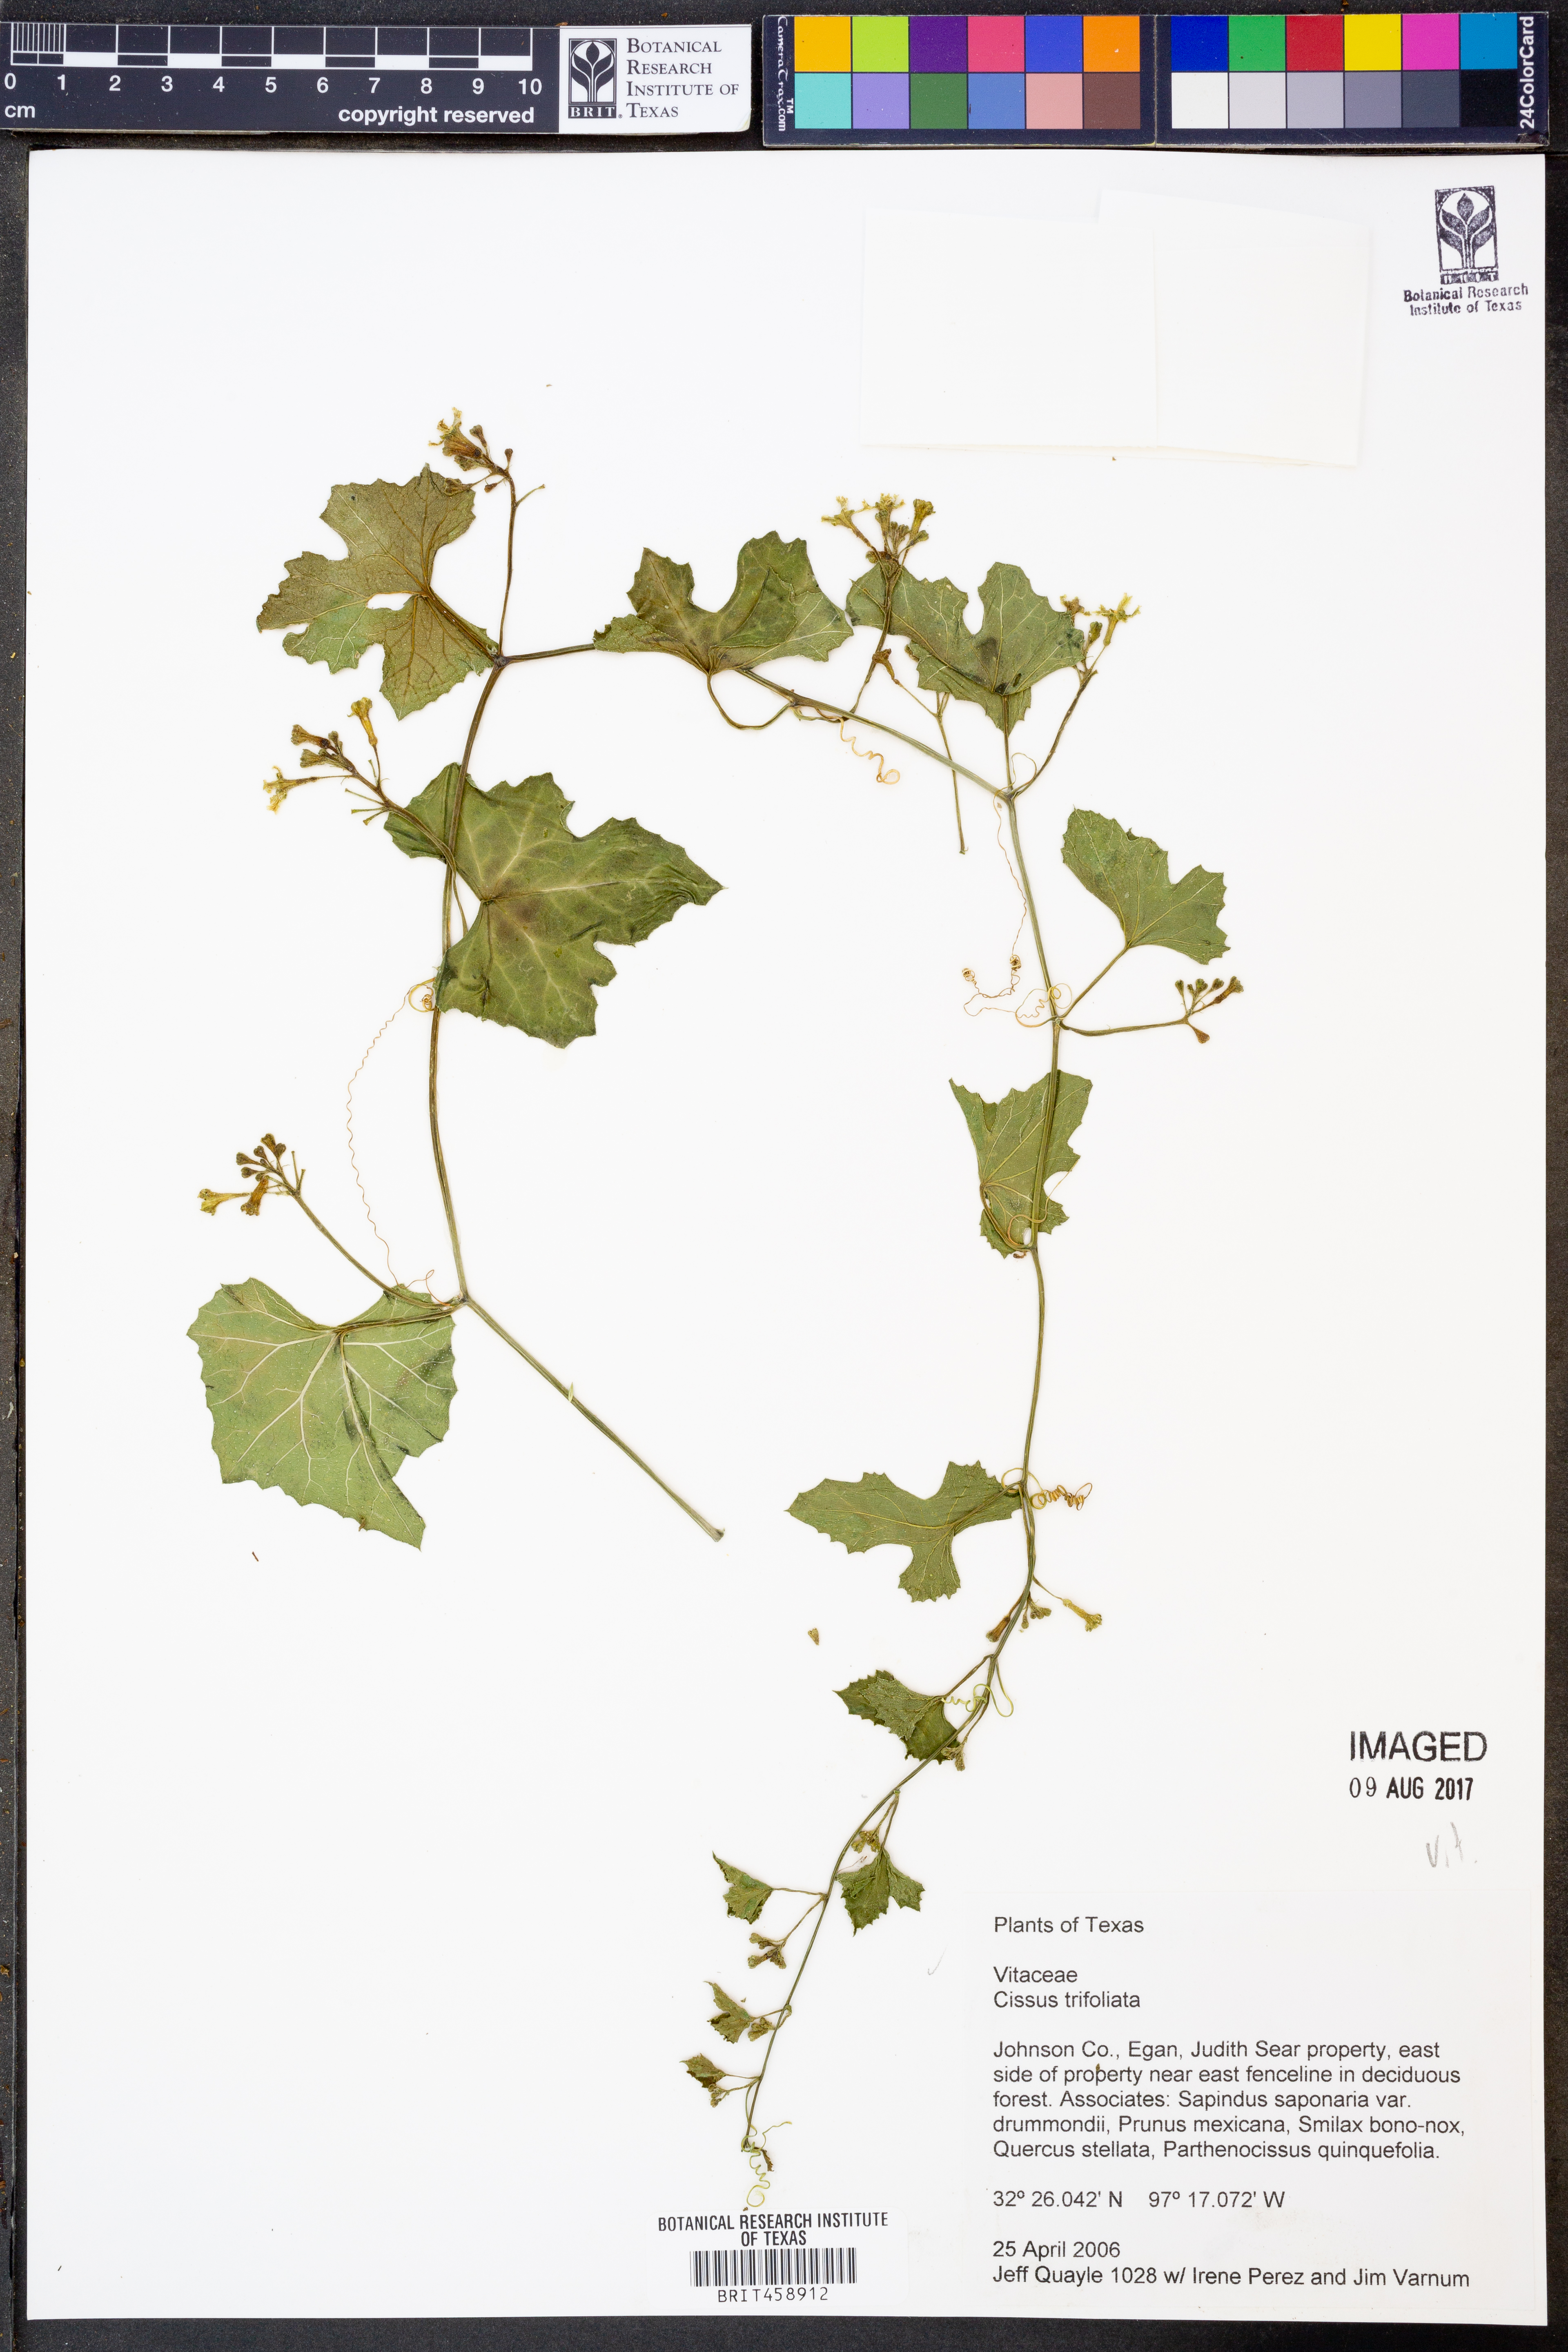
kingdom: Plantae
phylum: Tracheophyta
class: Magnoliopsida
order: Vitales
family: Vitaceae
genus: Cissus
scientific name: Cissus trifoliata
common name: Vine-sorrel
